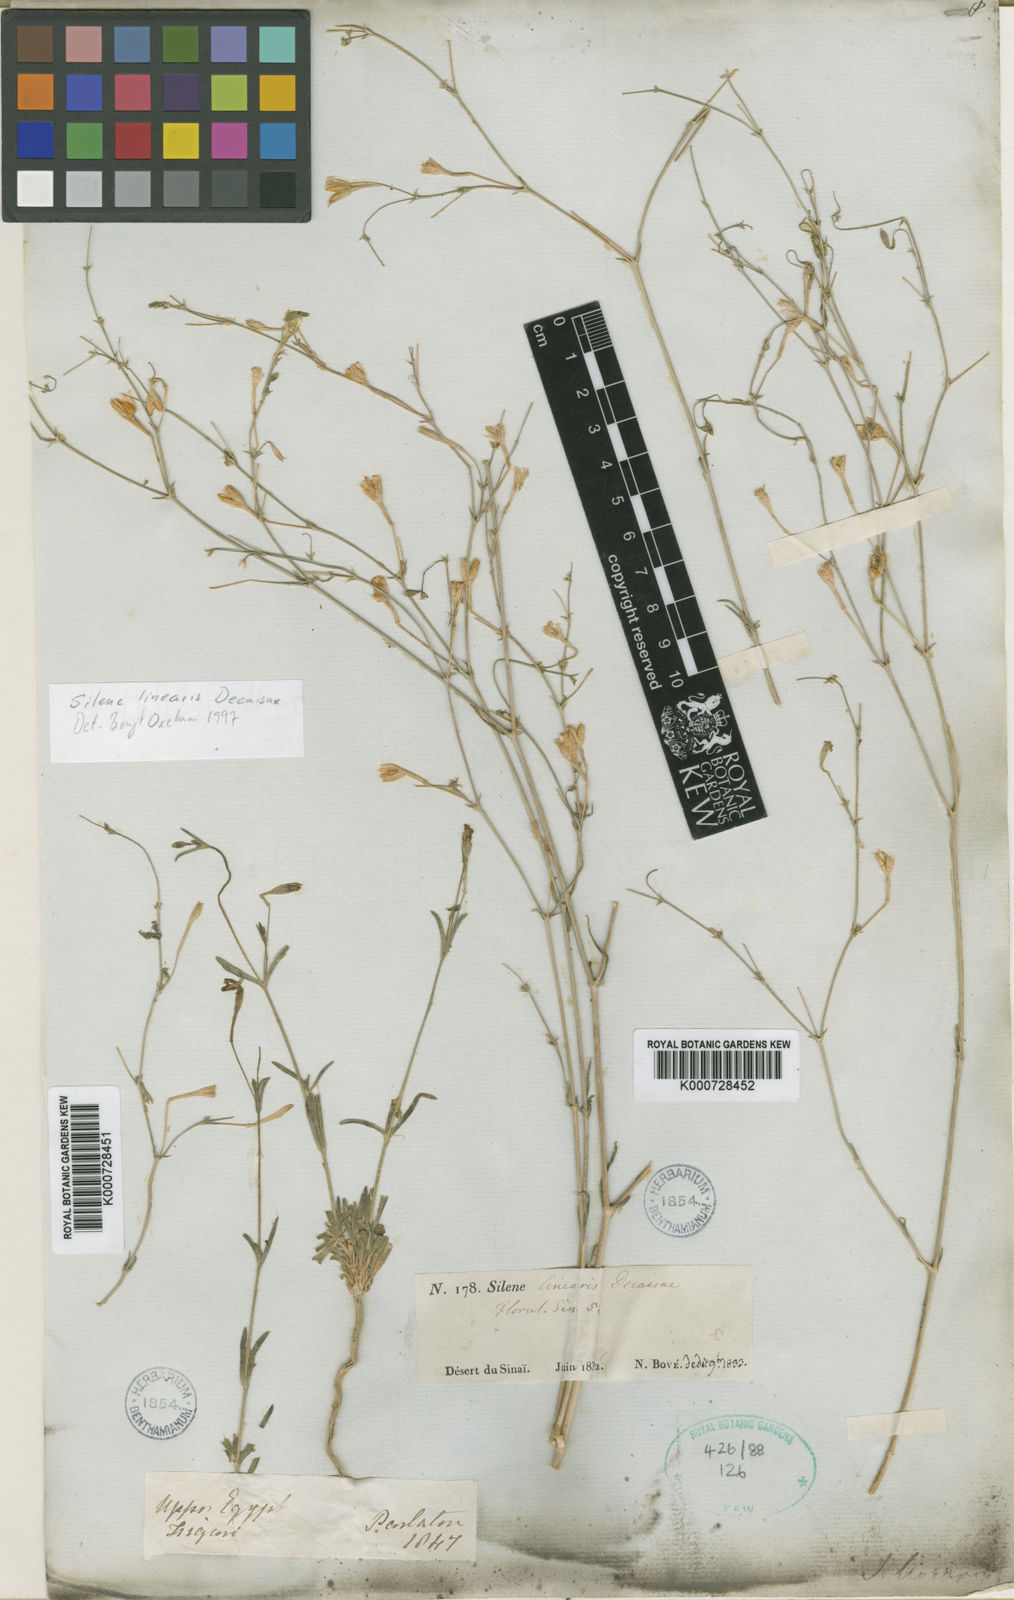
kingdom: Plantae
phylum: Tracheophyta
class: Magnoliopsida
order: Caryophyllales
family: Caryophyllaceae
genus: Silene
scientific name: Silene linearis
